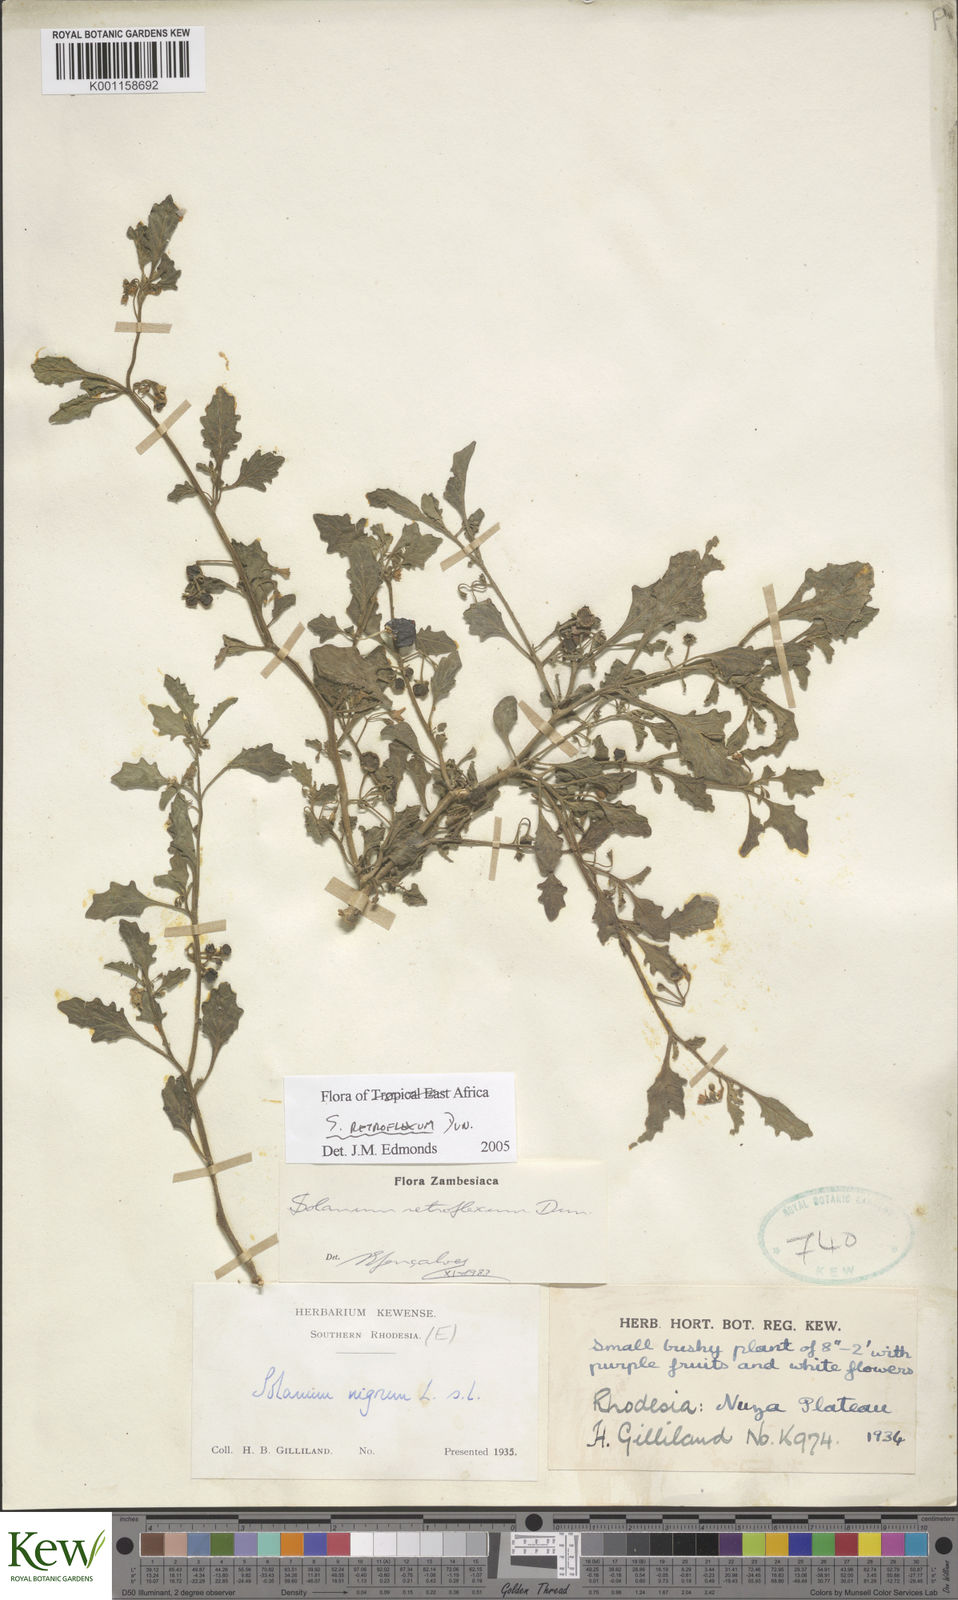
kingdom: Plantae
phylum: Tracheophyta
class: Magnoliopsida
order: Solanales
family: Solanaceae
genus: Solanum
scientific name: Solanum retroflexum
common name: Wonderberry
